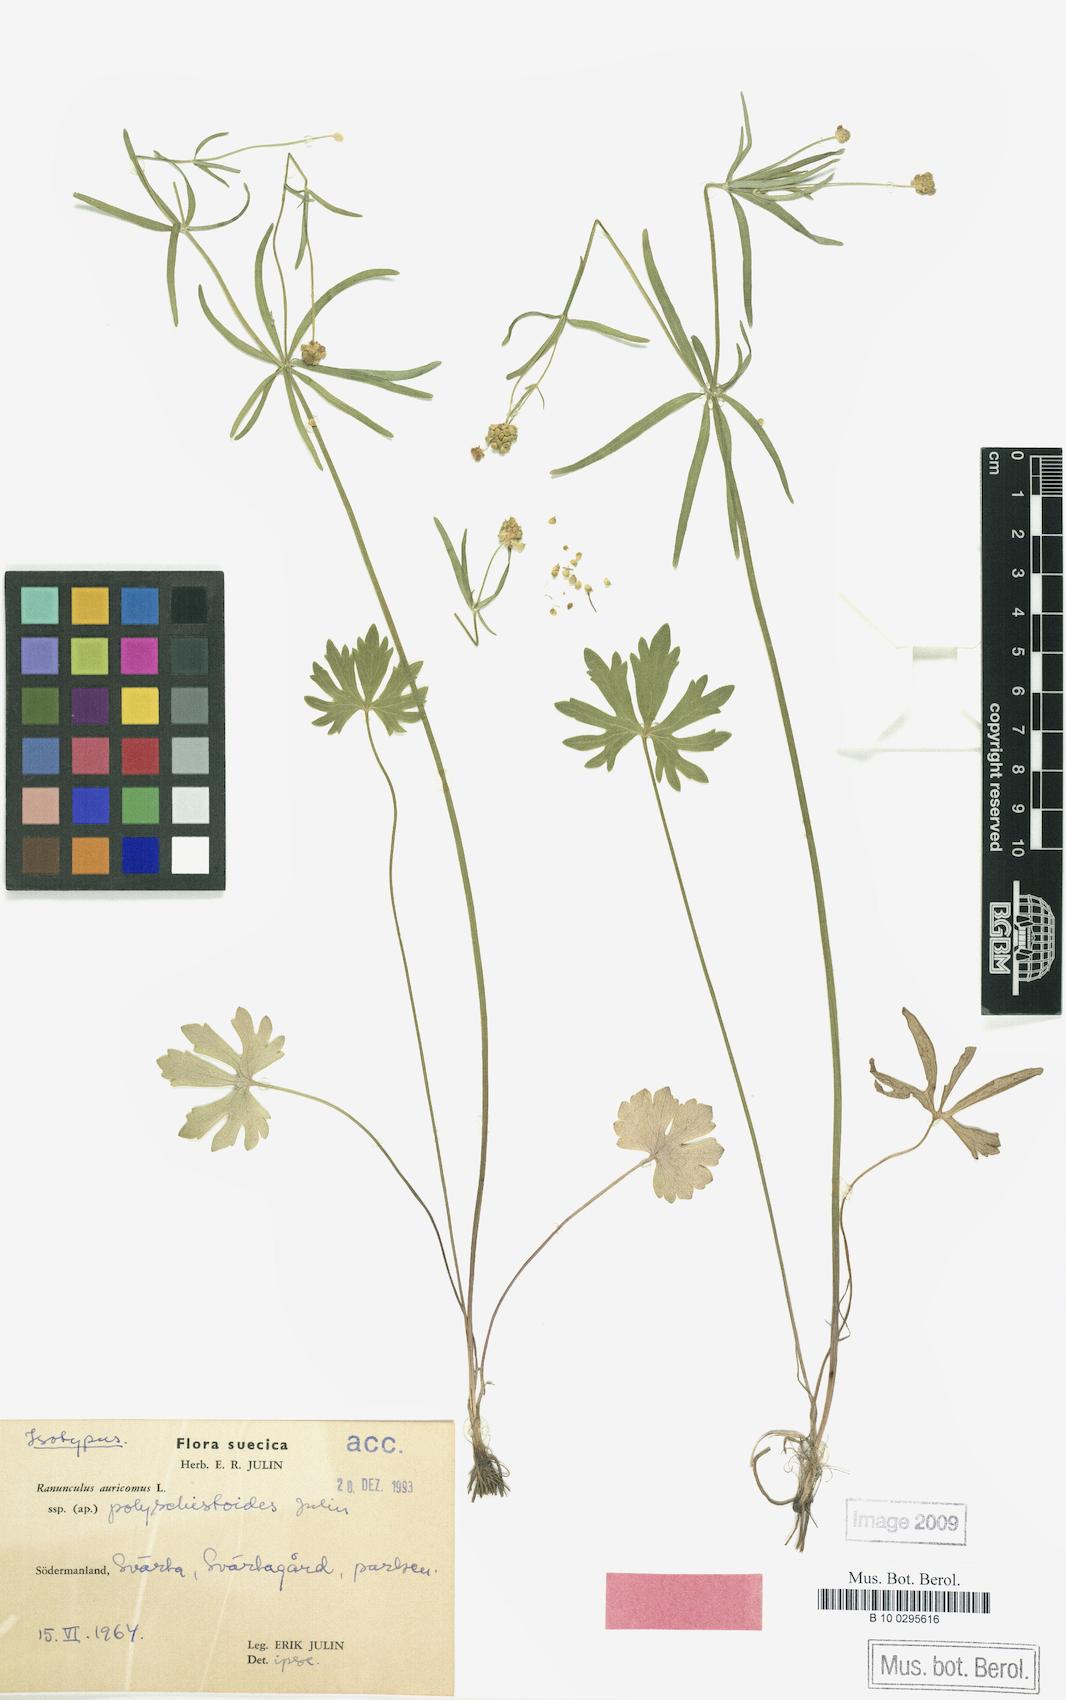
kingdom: Plantae
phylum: Tracheophyta
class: Magnoliopsida
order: Ranunculales
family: Ranunculaceae
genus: Ranunculus
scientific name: Ranunculus polyschistoides
